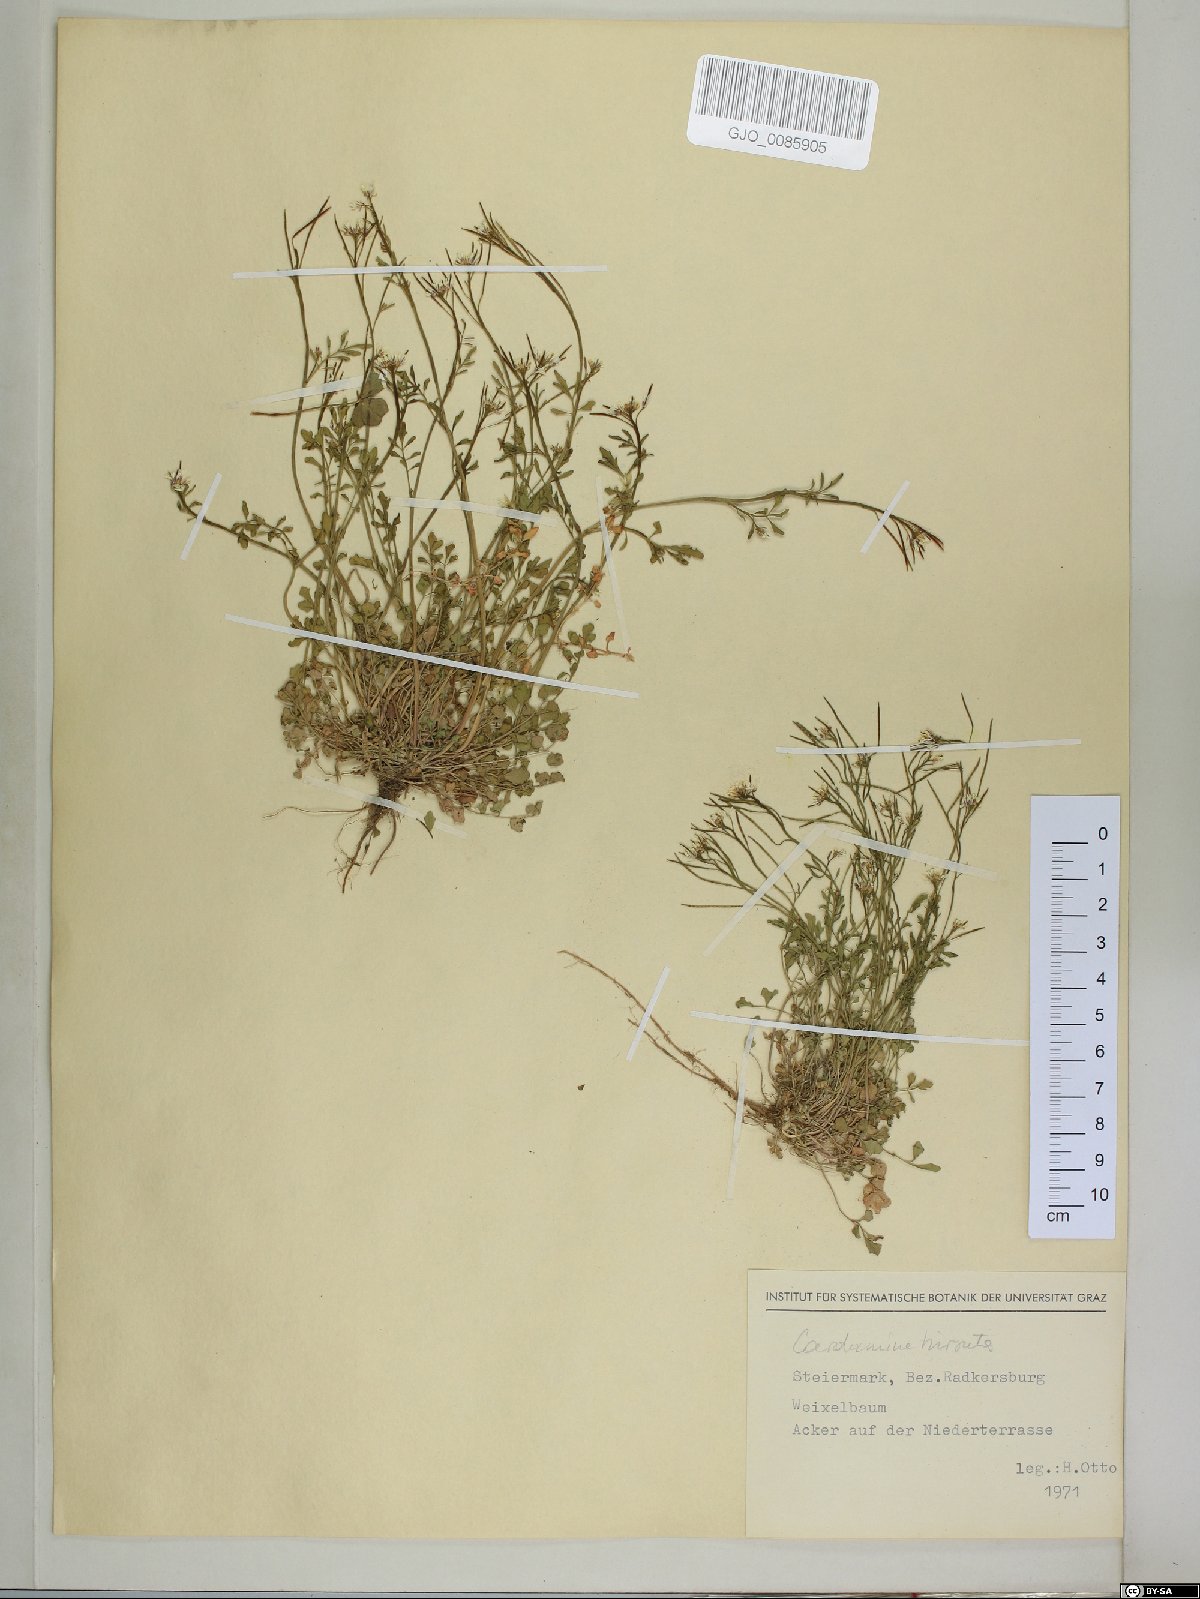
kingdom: Plantae
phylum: Tracheophyta
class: Magnoliopsida
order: Brassicales
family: Brassicaceae
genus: Cardamine
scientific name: Cardamine hirsuta
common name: Hairy bittercress
